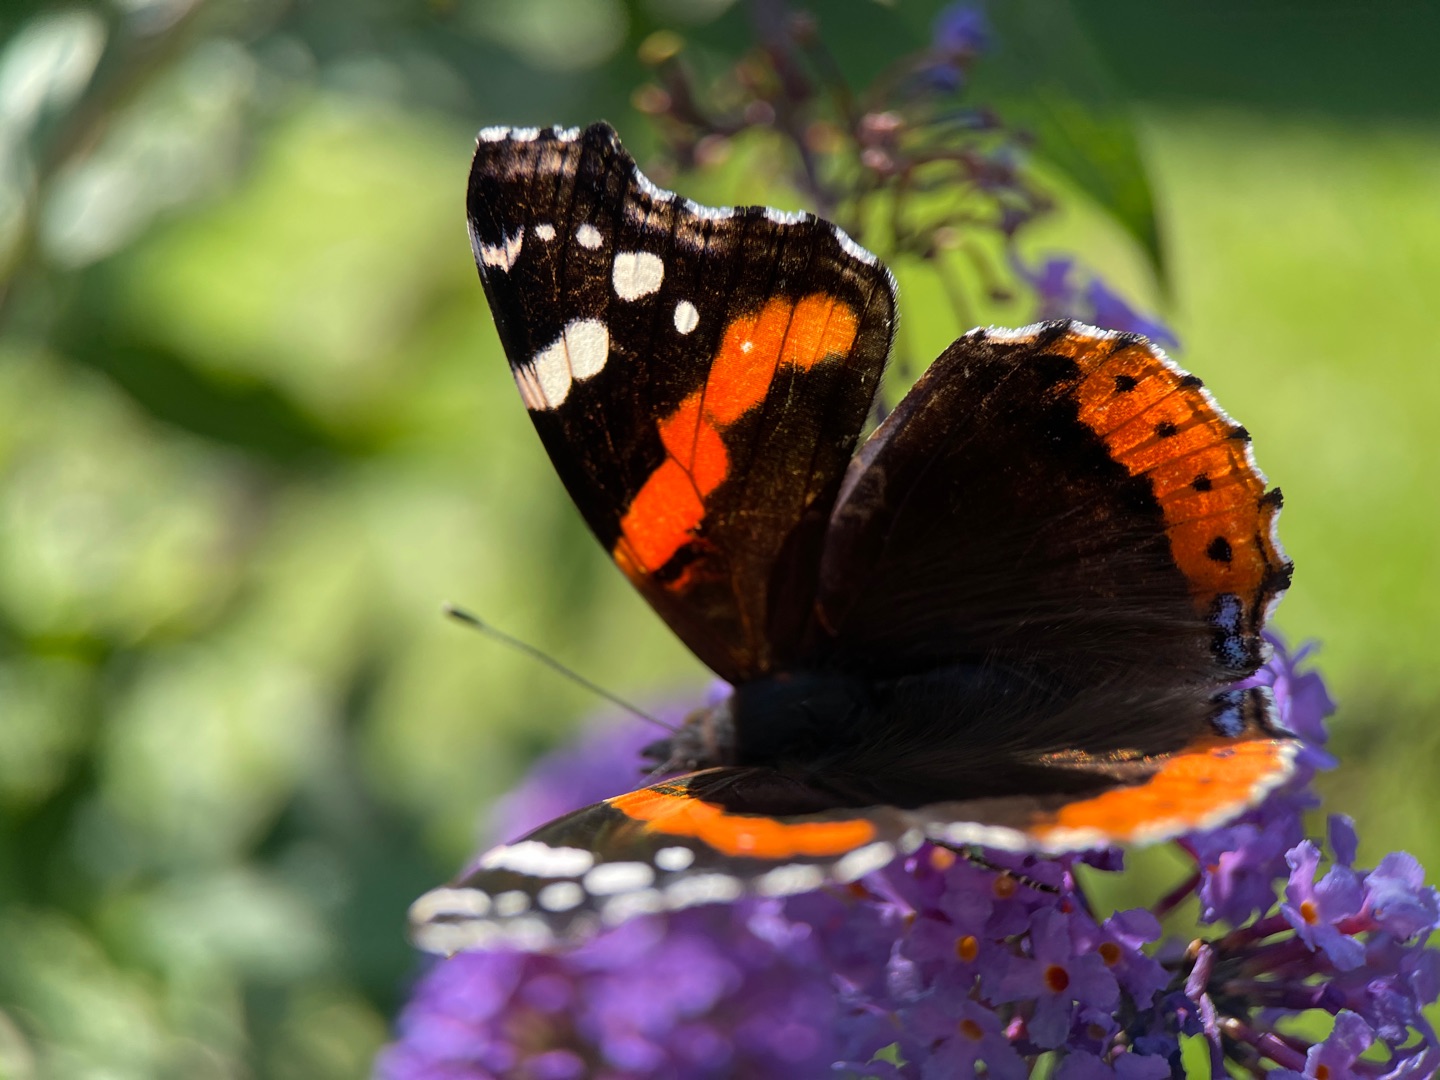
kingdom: Animalia
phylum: Arthropoda
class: Insecta
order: Lepidoptera
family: Nymphalidae
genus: Vanessa
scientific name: Vanessa atalanta
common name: Admiral
